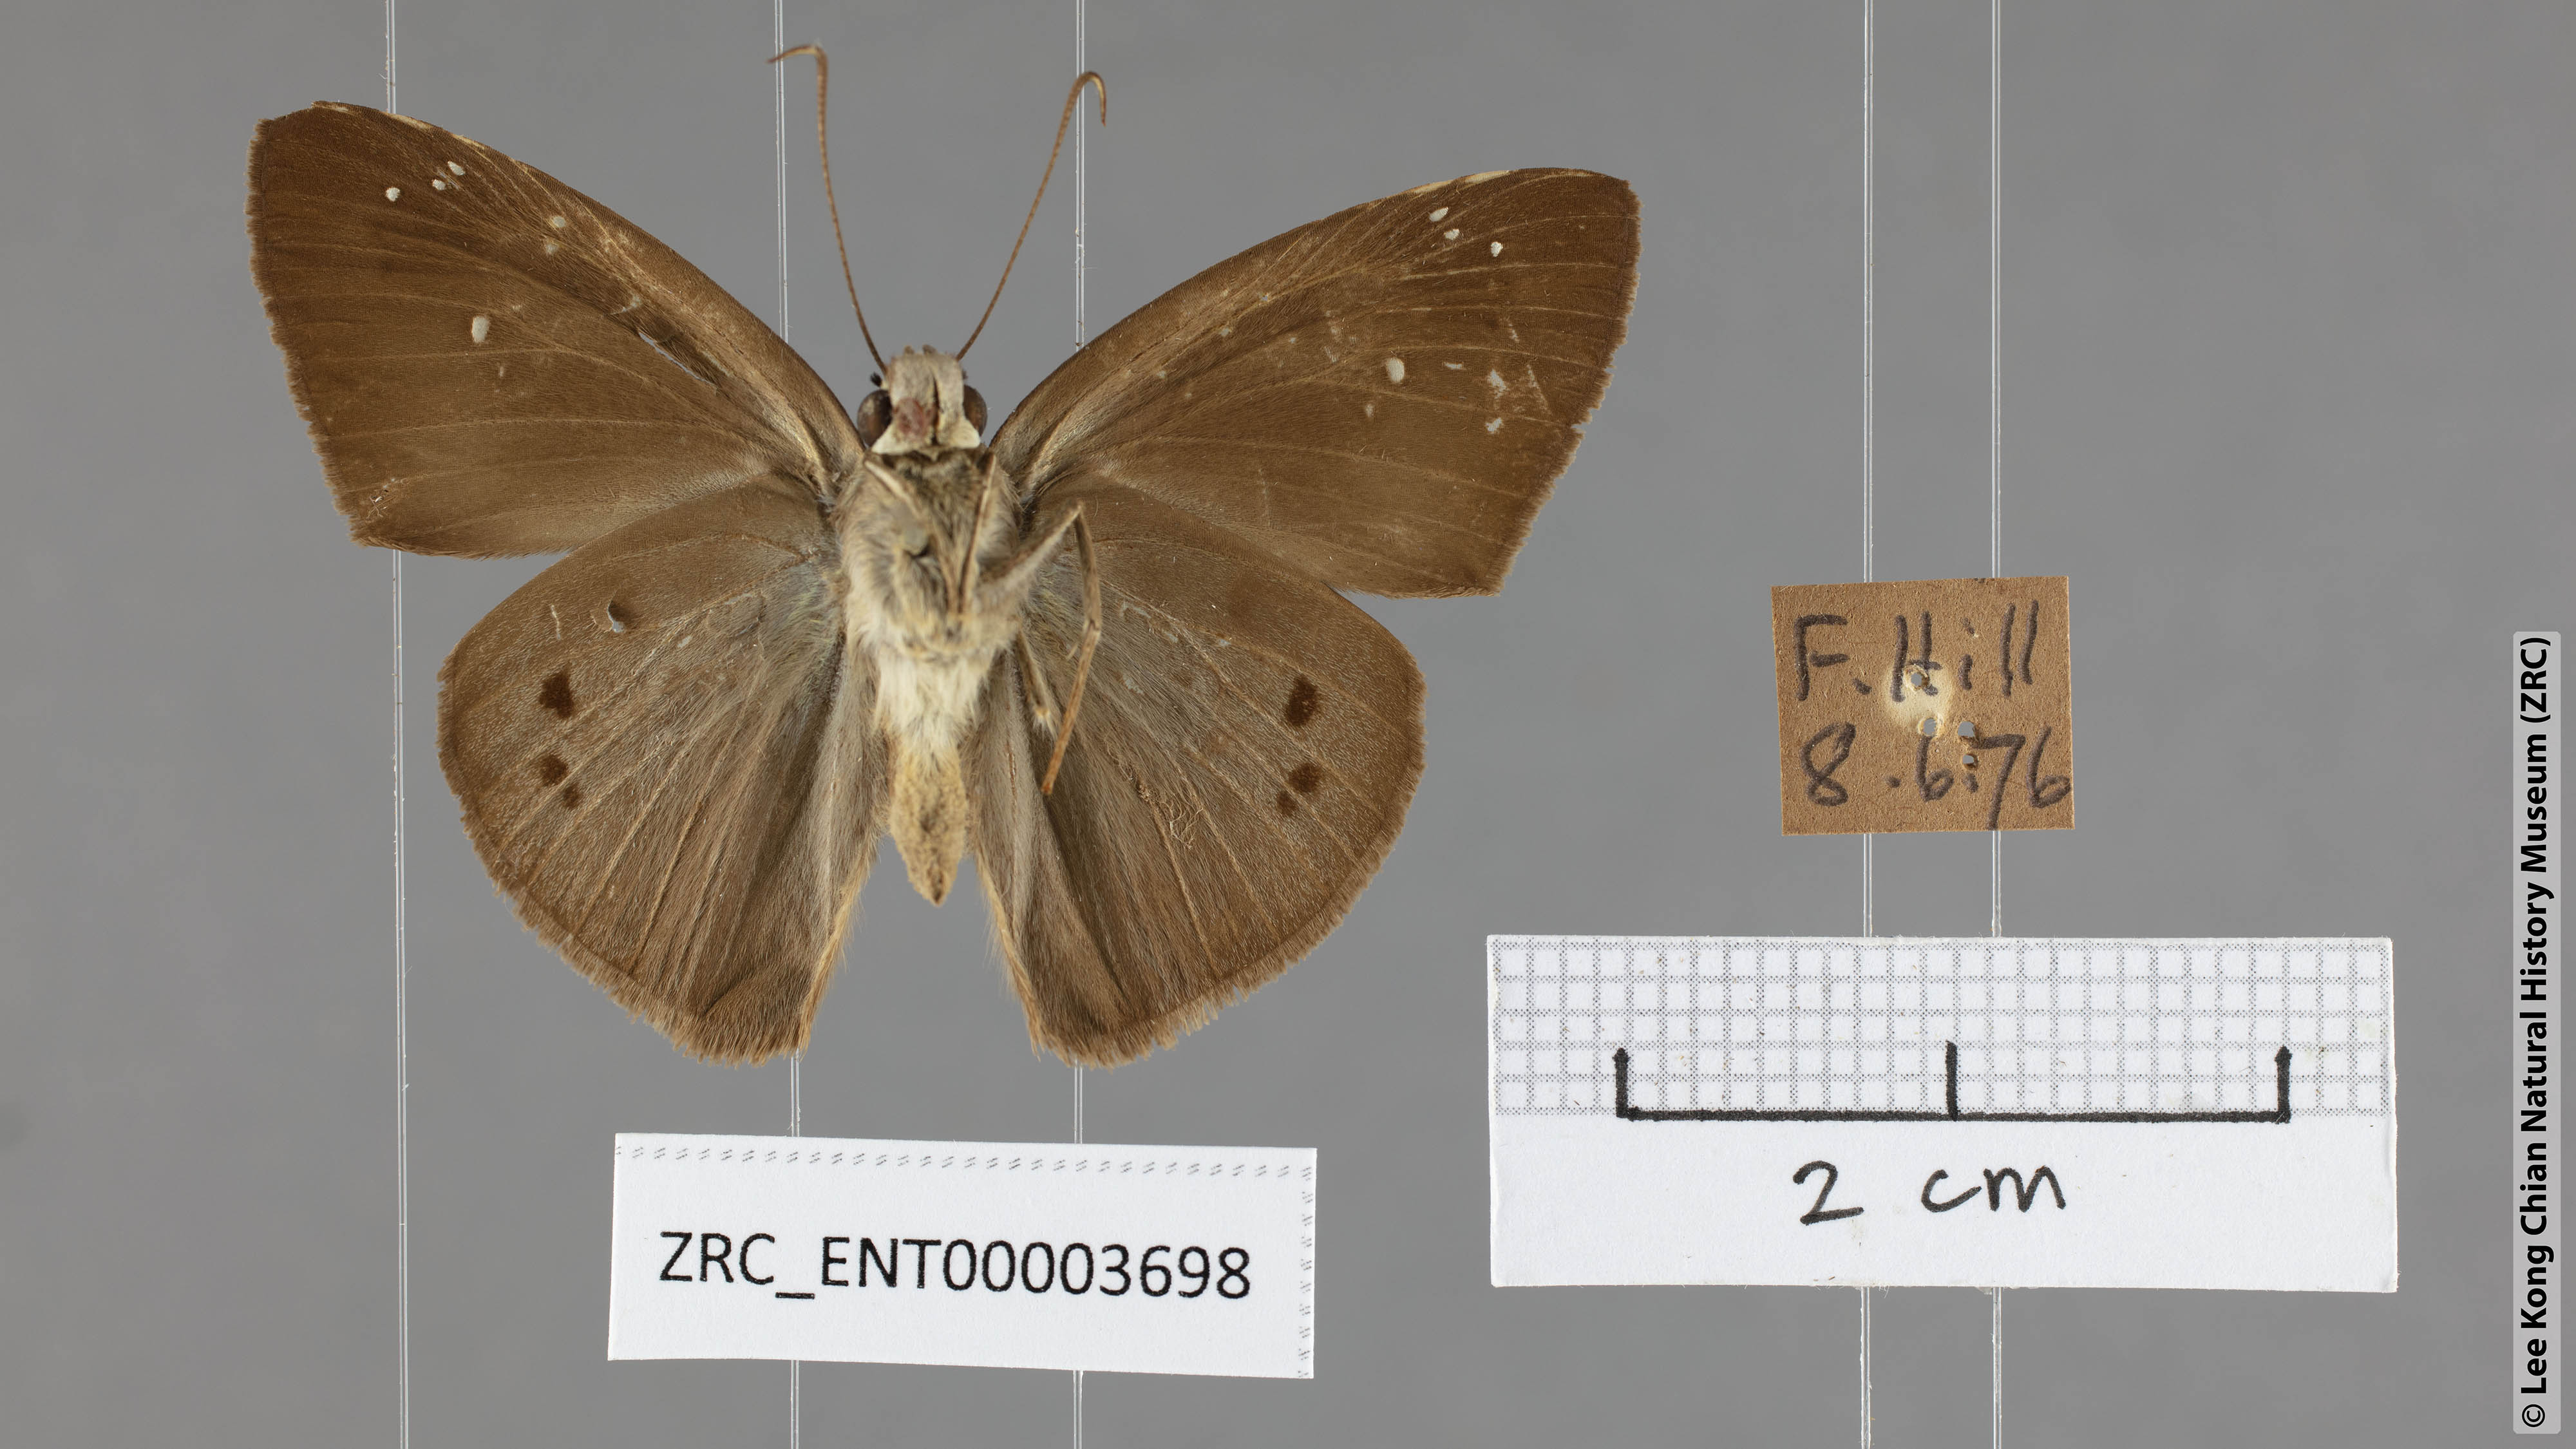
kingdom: Animalia
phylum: Arthropoda
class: Insecta
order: Lepidoptera
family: Hesperiidae
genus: Tagiades
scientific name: Tagiades japetus
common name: Pied flat
